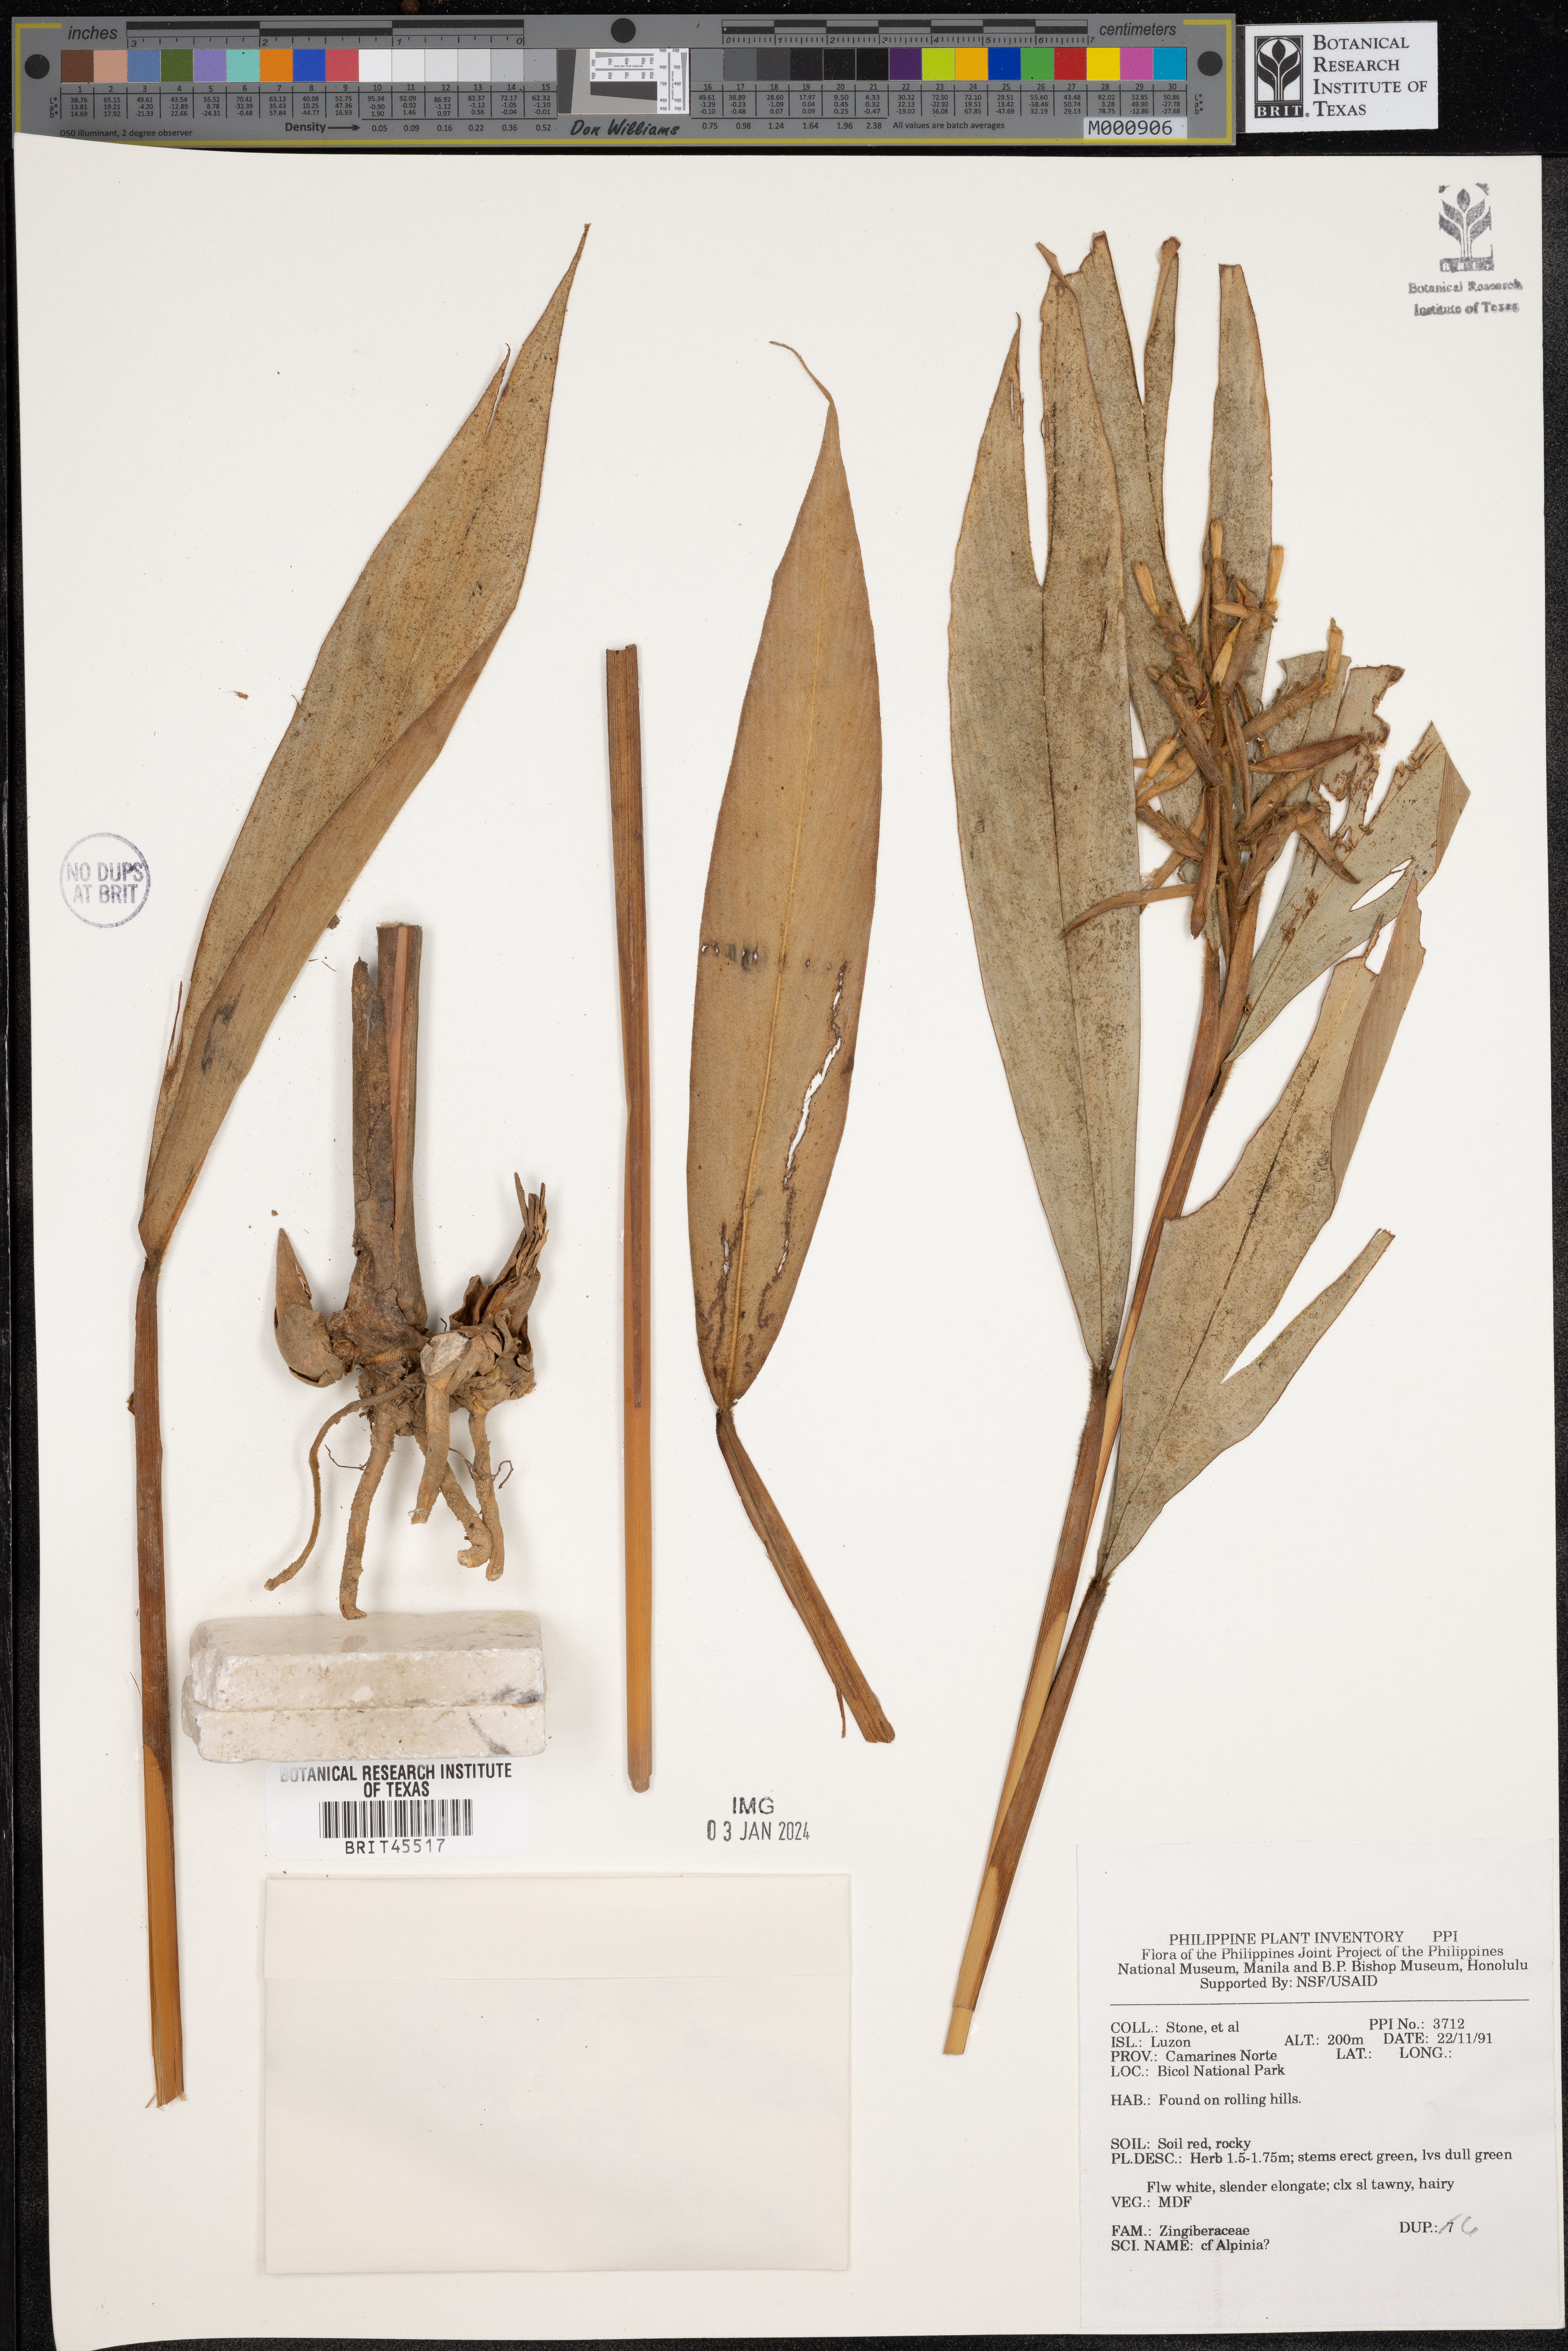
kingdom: Plantae
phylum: Tracheophyta
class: Liliopsida
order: Zingiberales
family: Zingiberaceae
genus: Alpinia
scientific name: Alpinia
